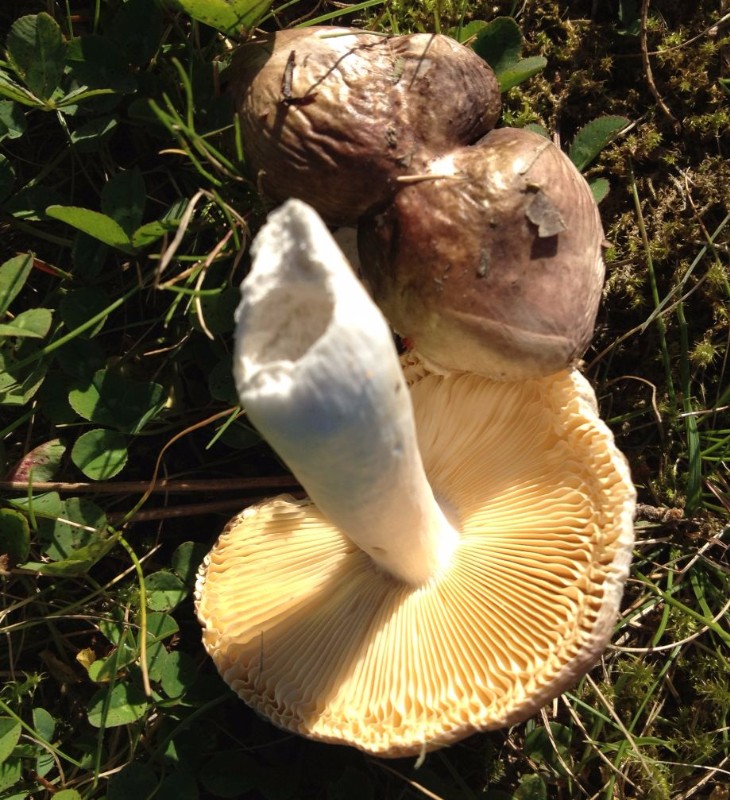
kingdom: Fungi
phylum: Basidiomycota
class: Agaricomycetes
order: Russulales
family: Russulaceae
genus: Russula
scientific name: Russula cessans
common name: fyrre-skørhat
